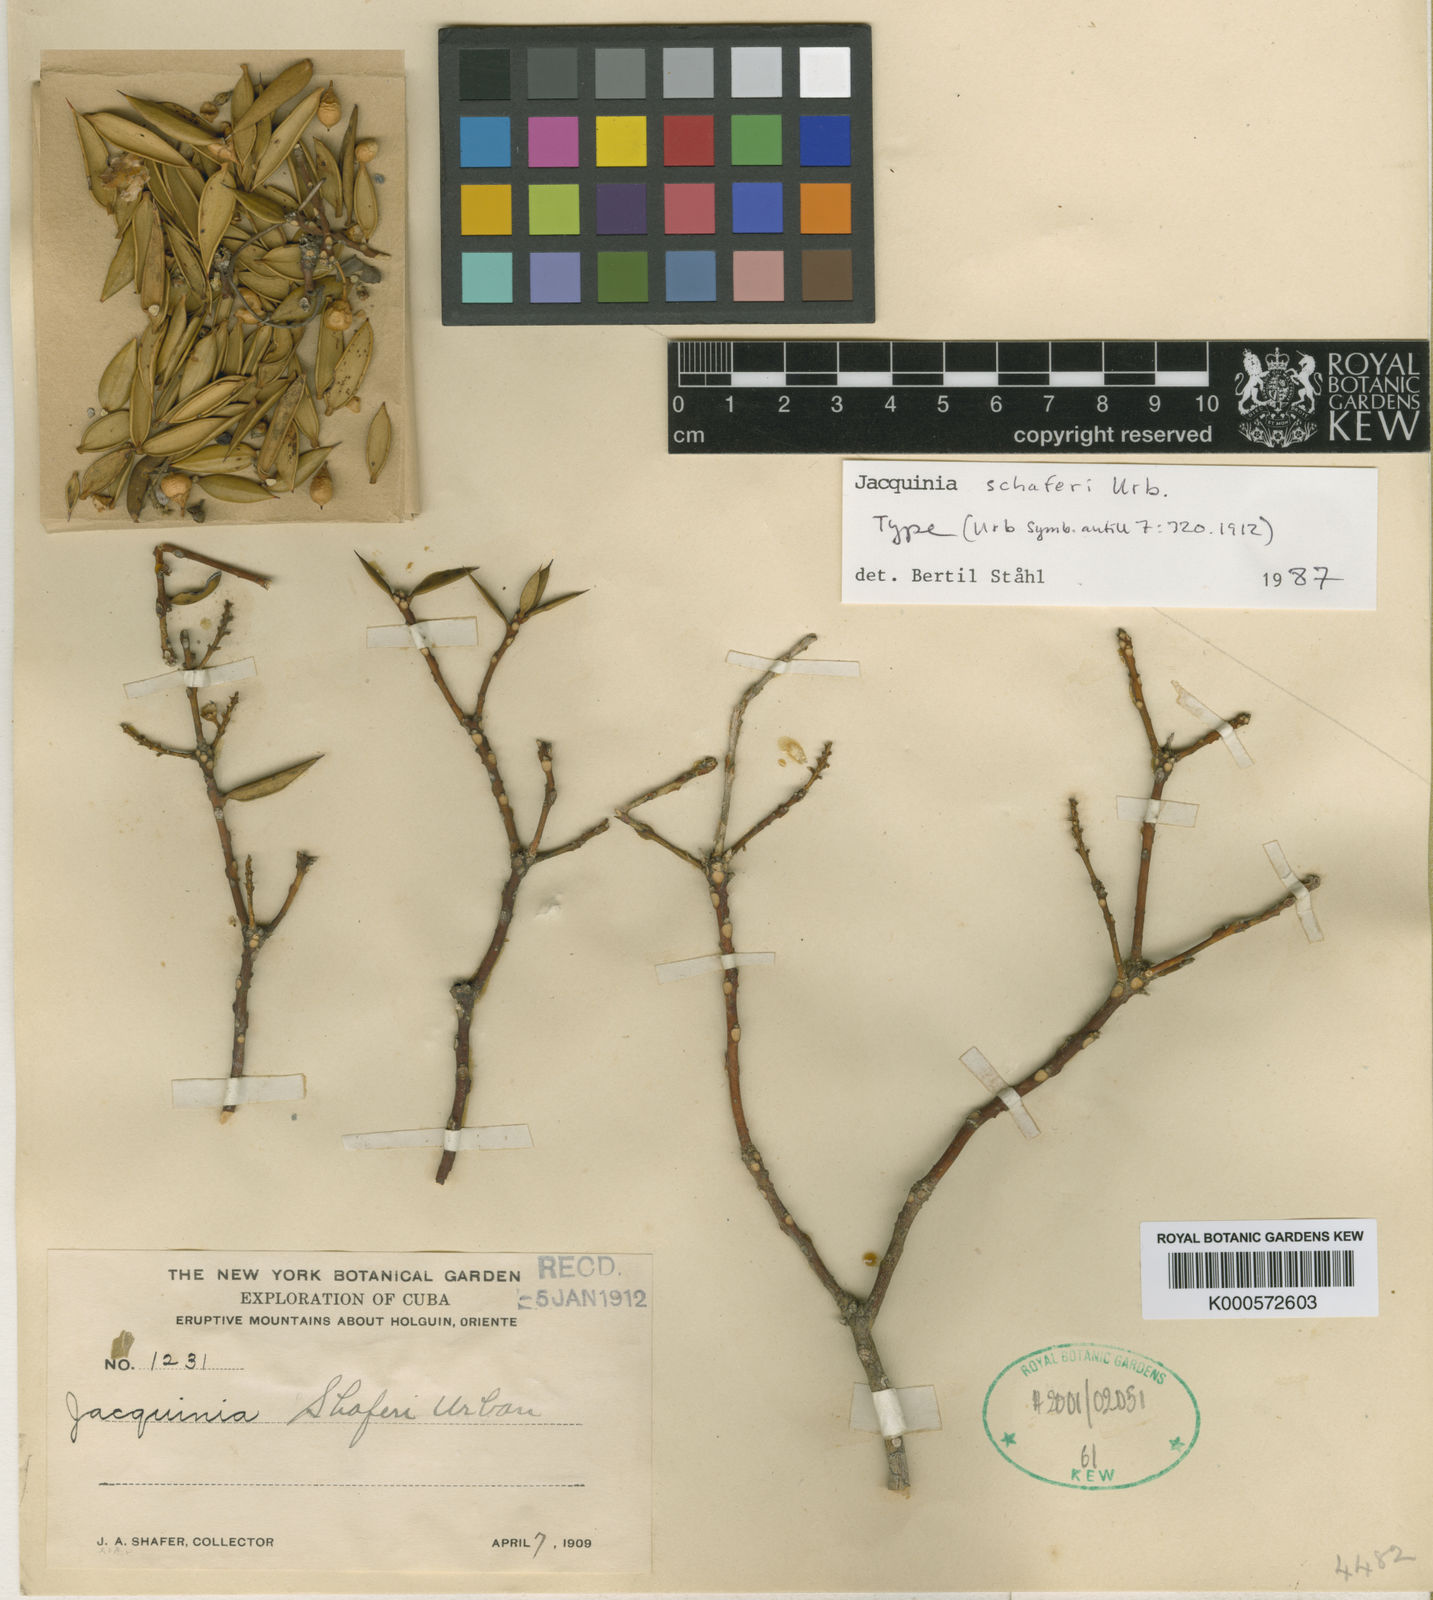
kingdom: Plantae
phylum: Tracheophyta
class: Magnoliopsida
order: Ericales
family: Primulaceae
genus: Bonellia
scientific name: Bonellia shaferi
